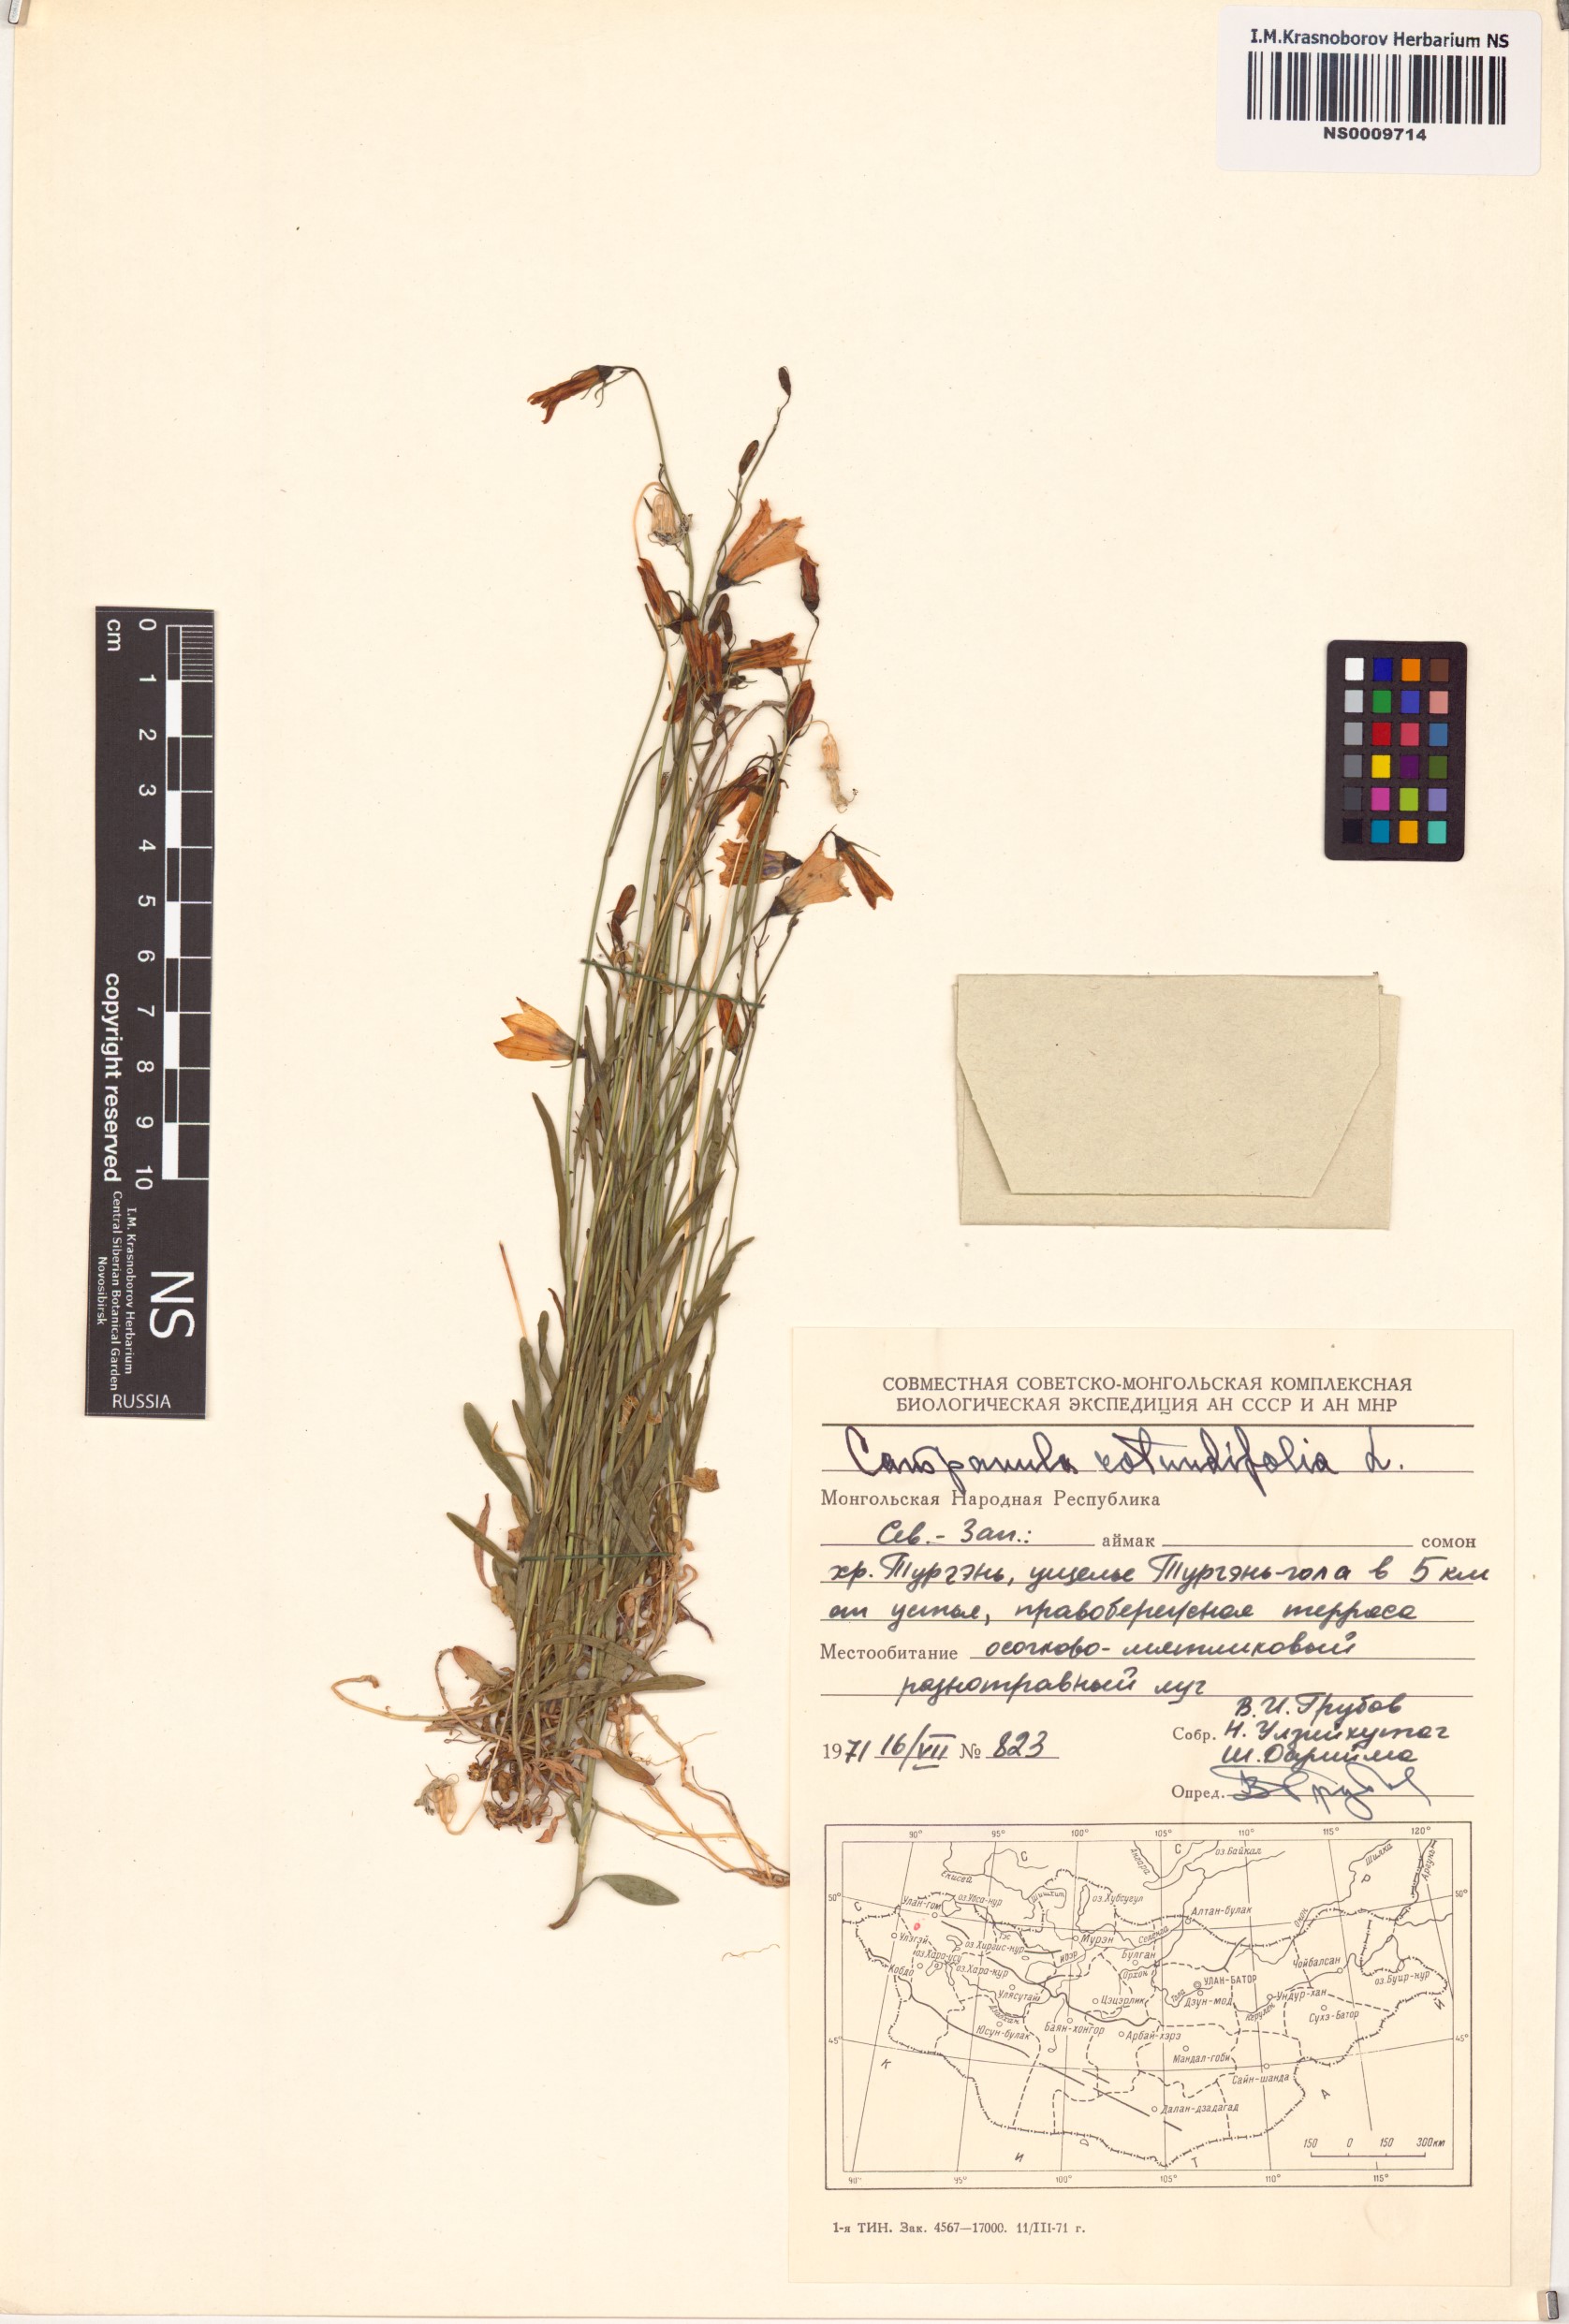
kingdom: Plantae
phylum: Tracheophyta
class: Magnoliopsida
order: Asterales
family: Campanulaceae
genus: Campanula
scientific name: Campanula rotundifolia
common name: Harebell
